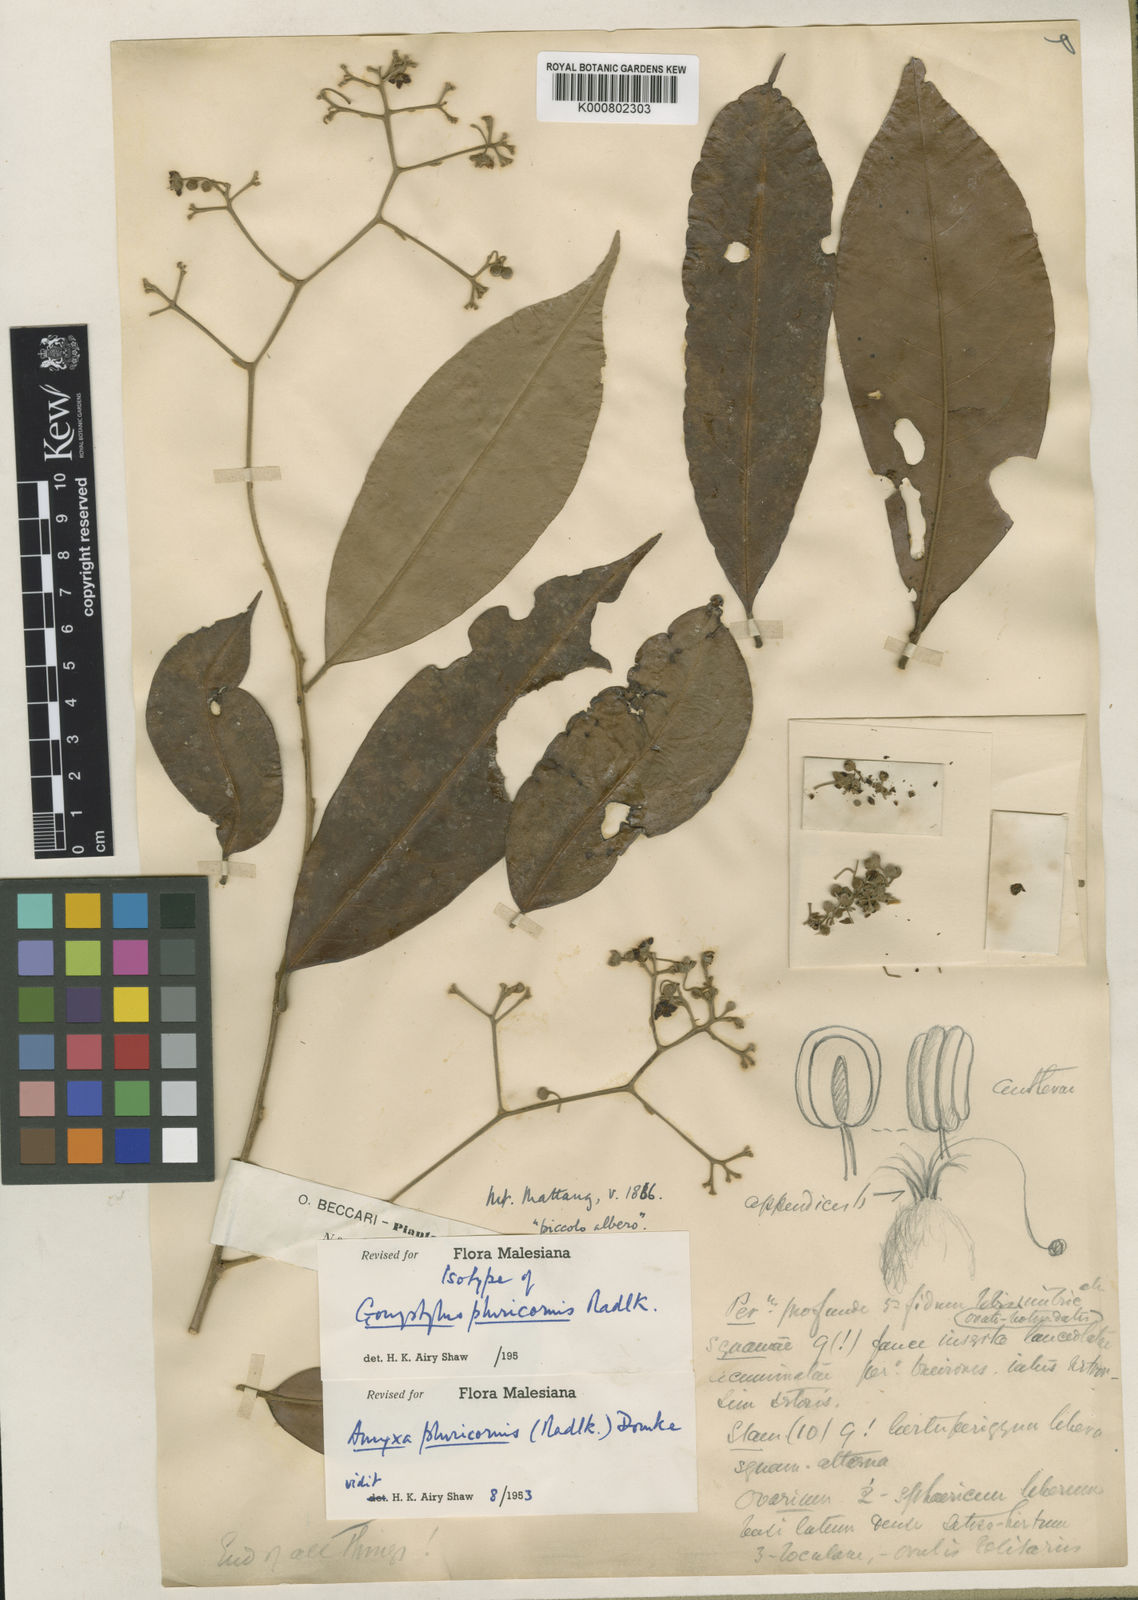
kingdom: Plantae
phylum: Tracheophyta
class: Magnoliopsida
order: Malvales
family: Thymelaeaceae
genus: Amyxa
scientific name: Amyxa pluricornis
